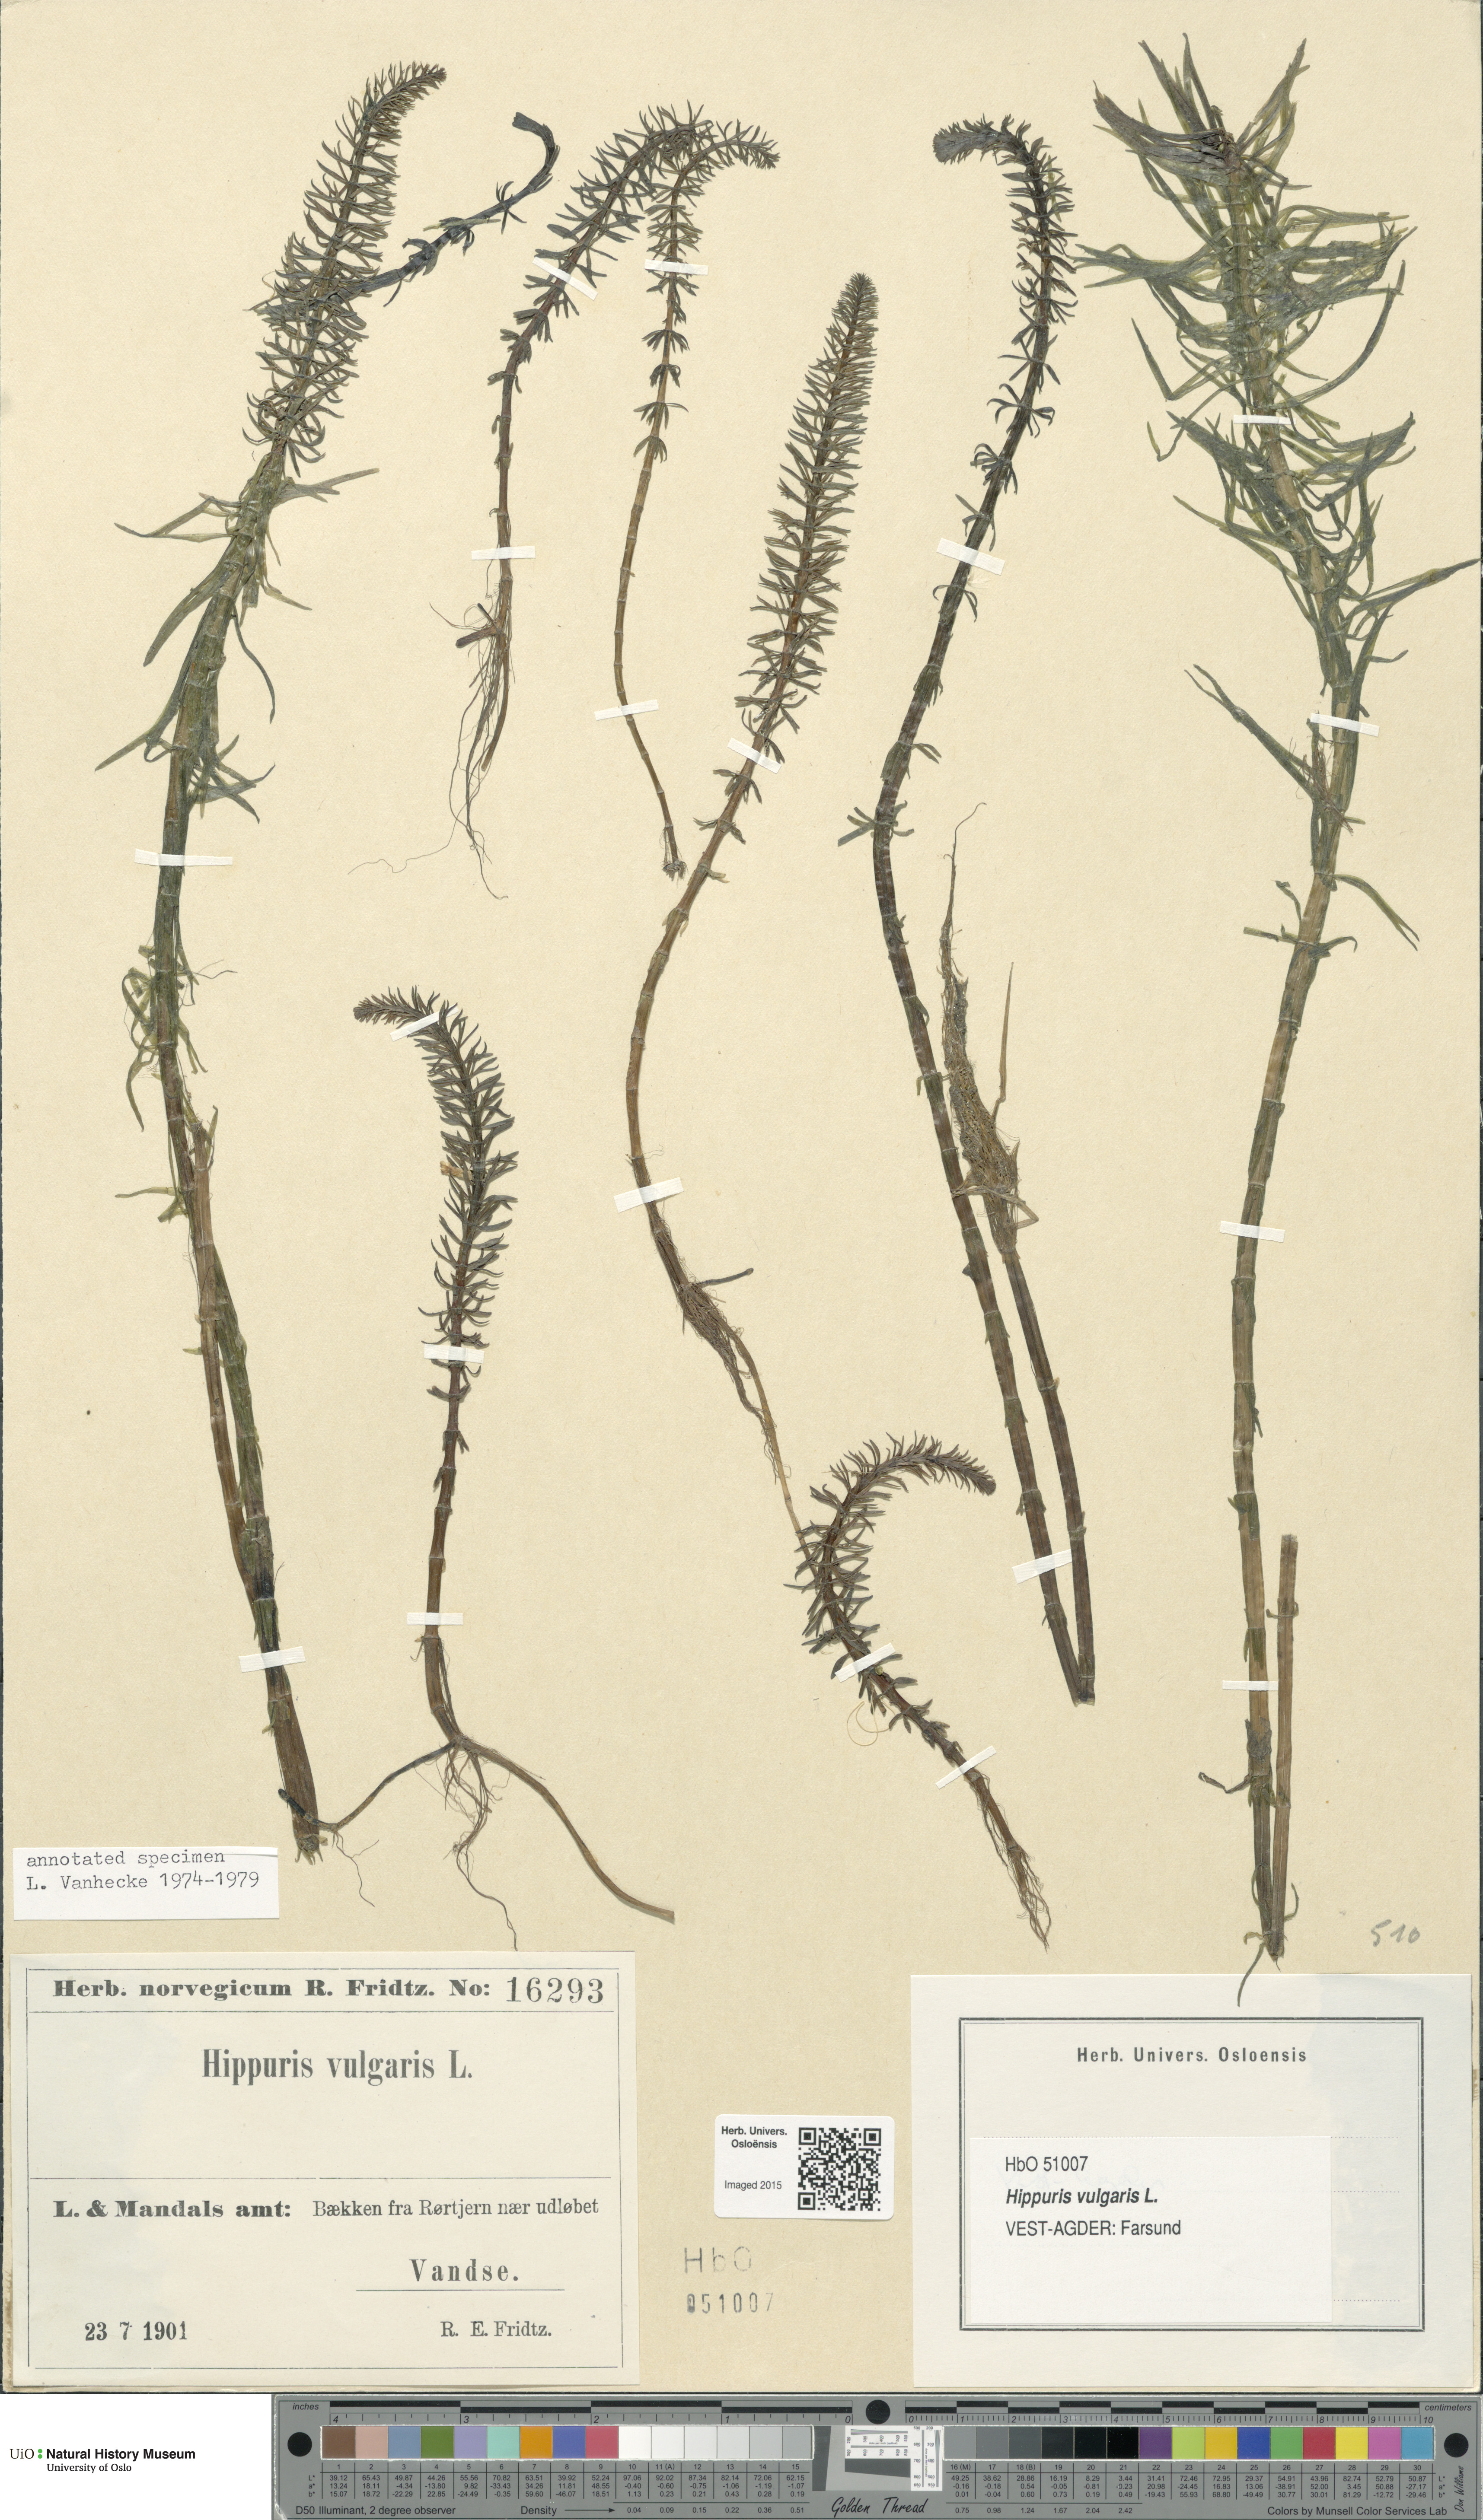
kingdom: Plantae
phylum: Tracheophyta
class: Magnoliopsida
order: Lamiales
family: Plantaginaceae
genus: Hippuris
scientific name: Hippuris vulgaris
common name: Mare's-tail
